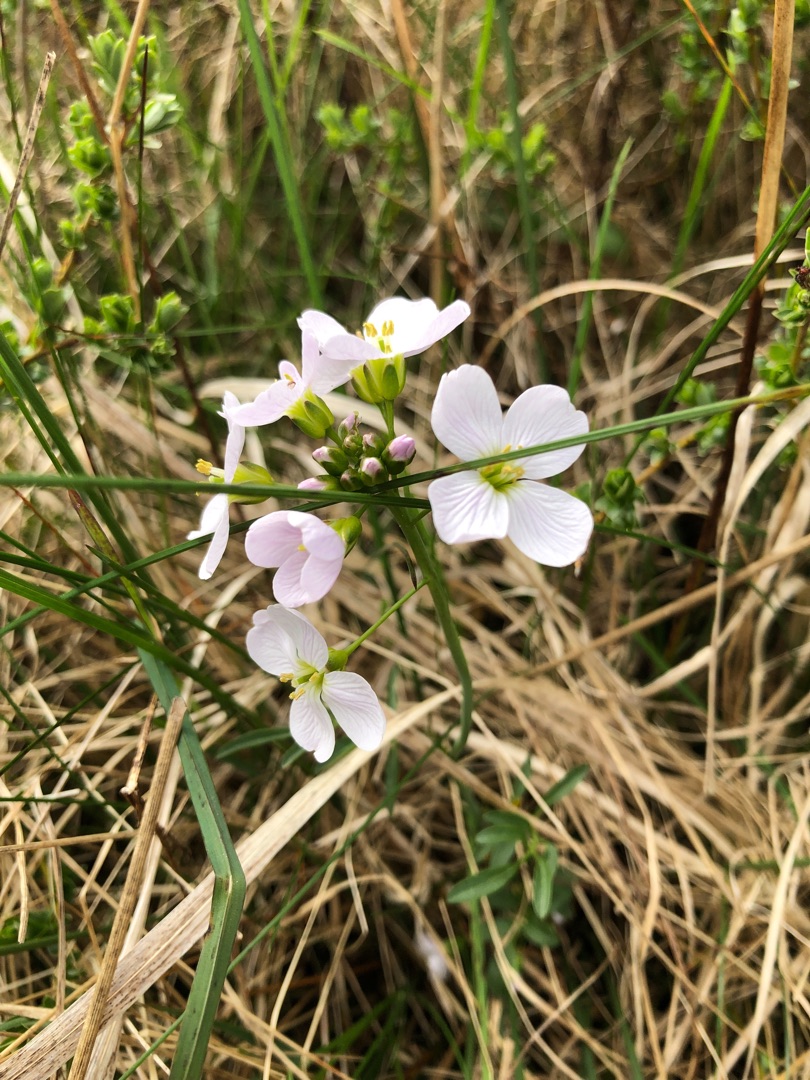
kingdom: Plantae
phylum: Tracheophyta
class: Magnoliopsida
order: Brassicales
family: Brassicaceae
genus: Cardamine
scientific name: Cardamine pratensis
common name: Engkarse
